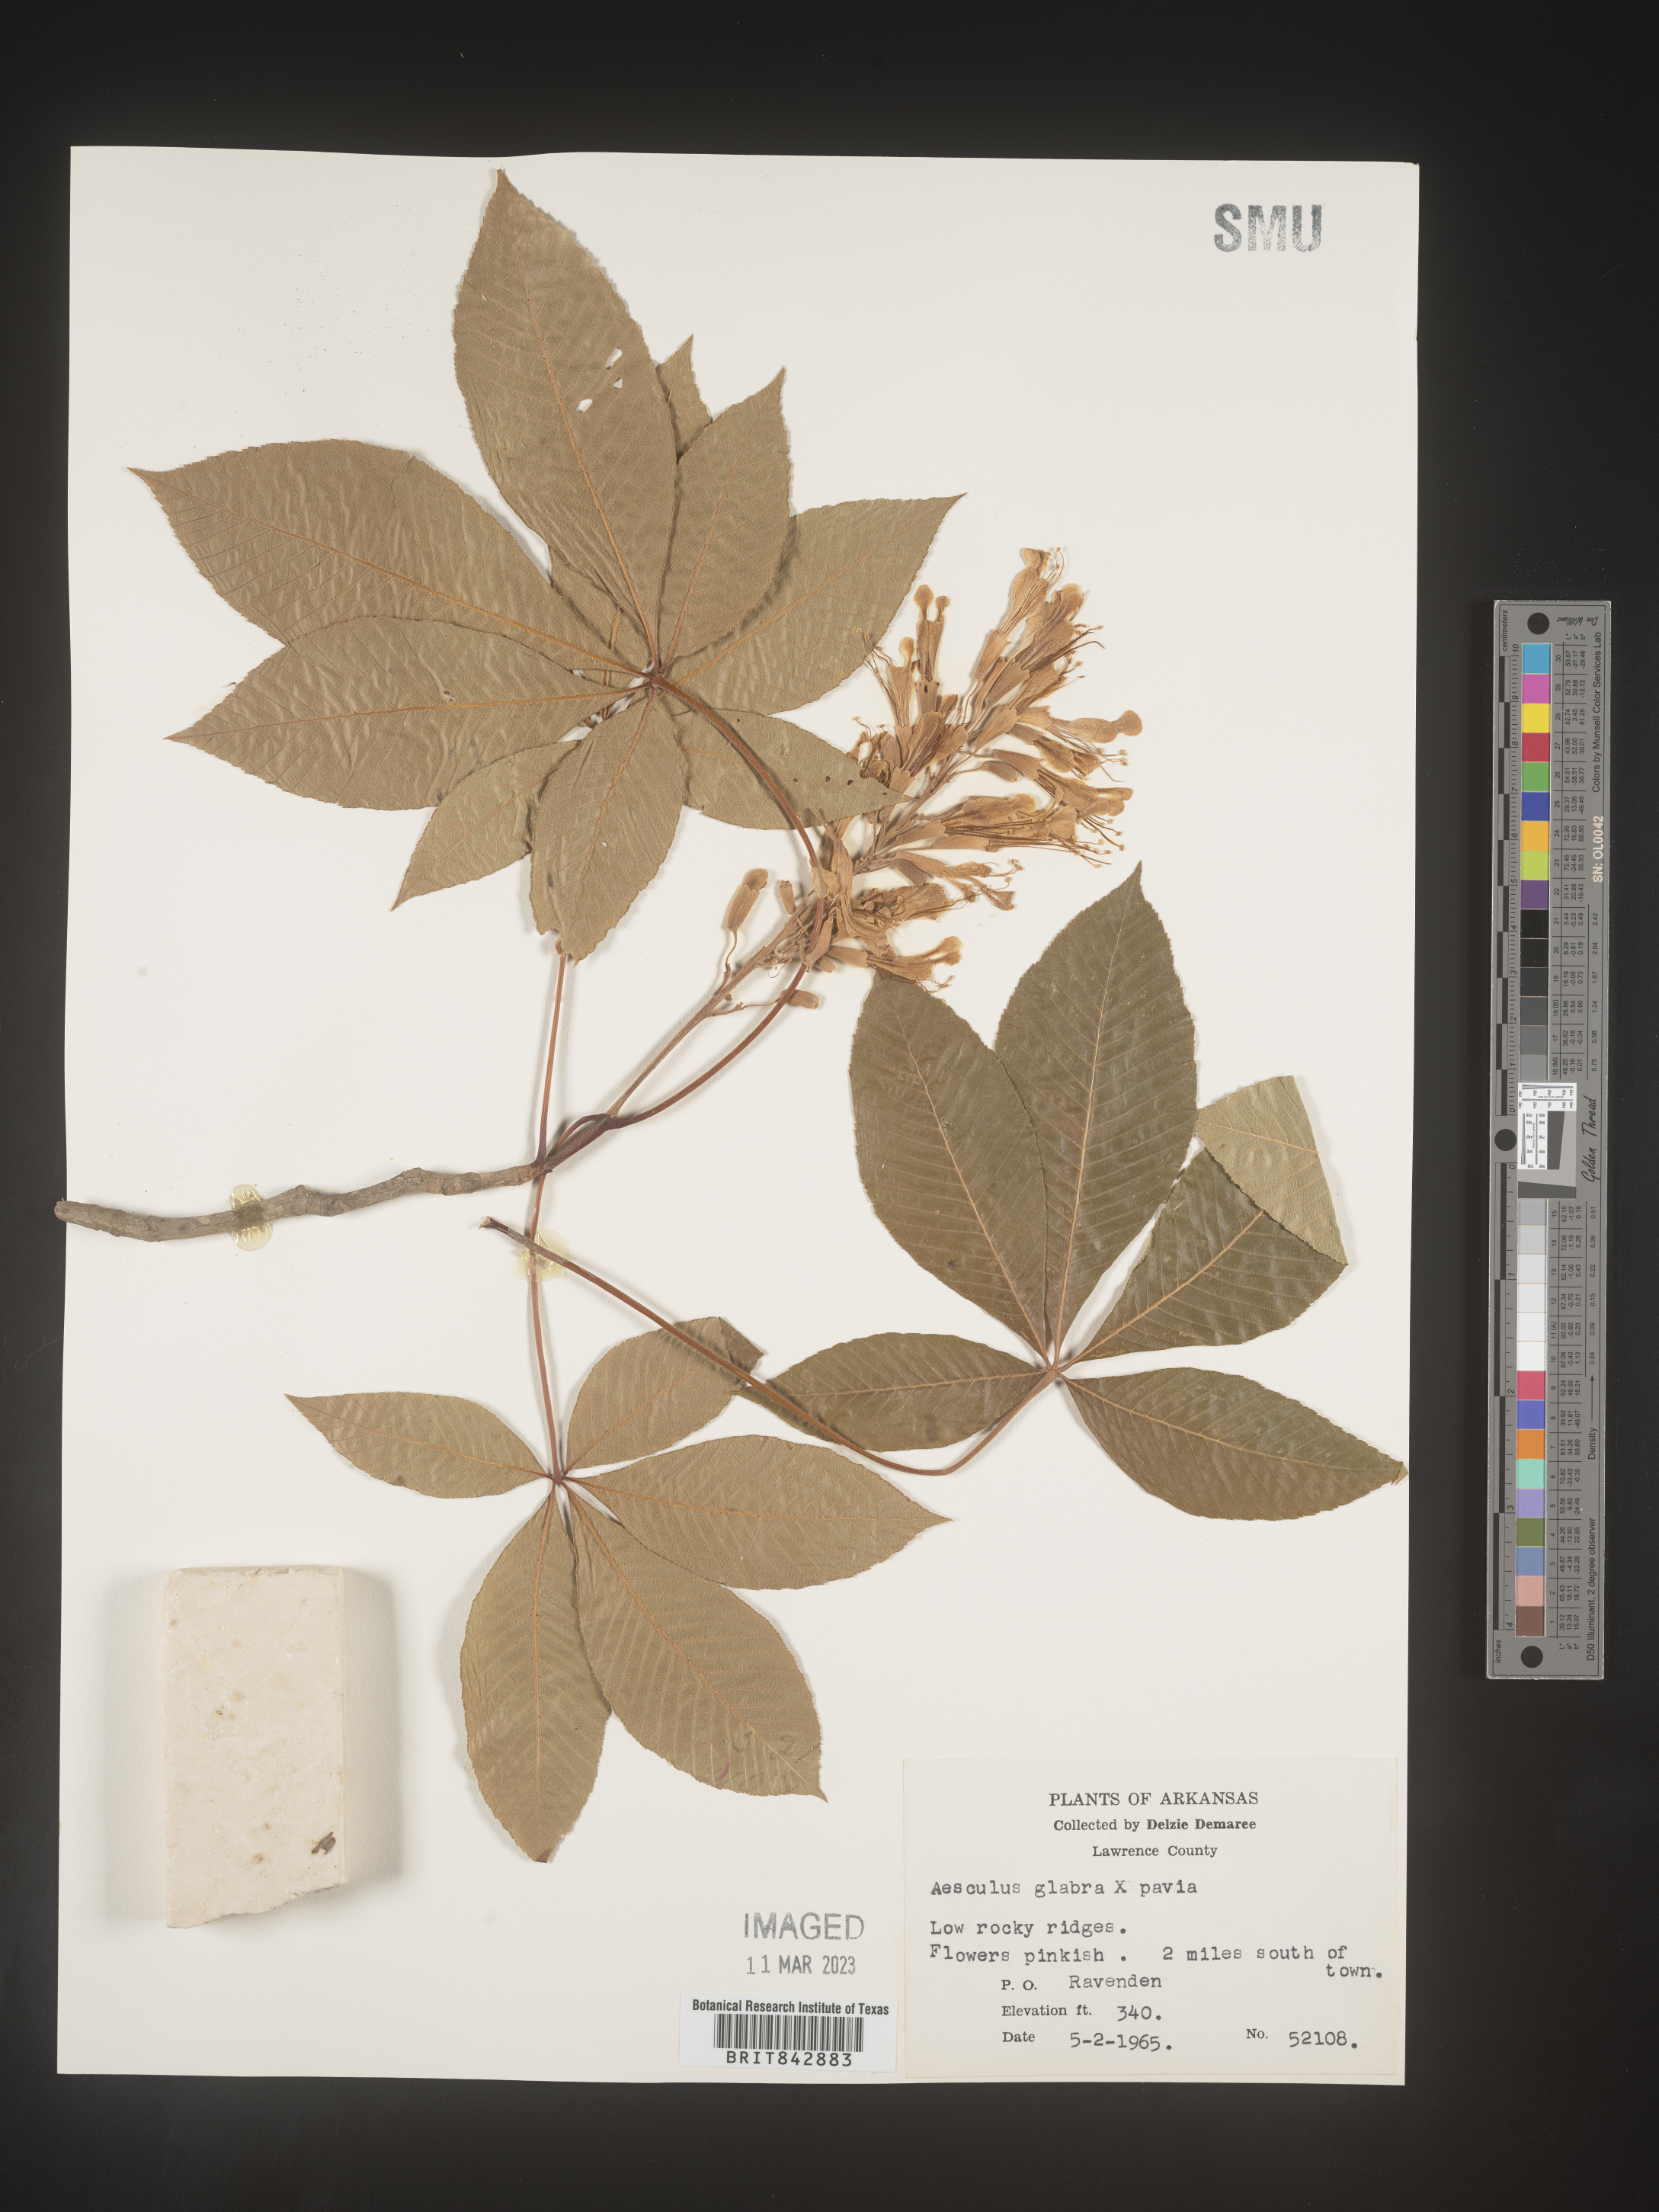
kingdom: Plantae
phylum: Tracheophyta
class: Magnoliopsida
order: Sapindales
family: Sapindaceae
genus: Aesculus
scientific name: Aesculus glabra
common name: Ohio buckeye
